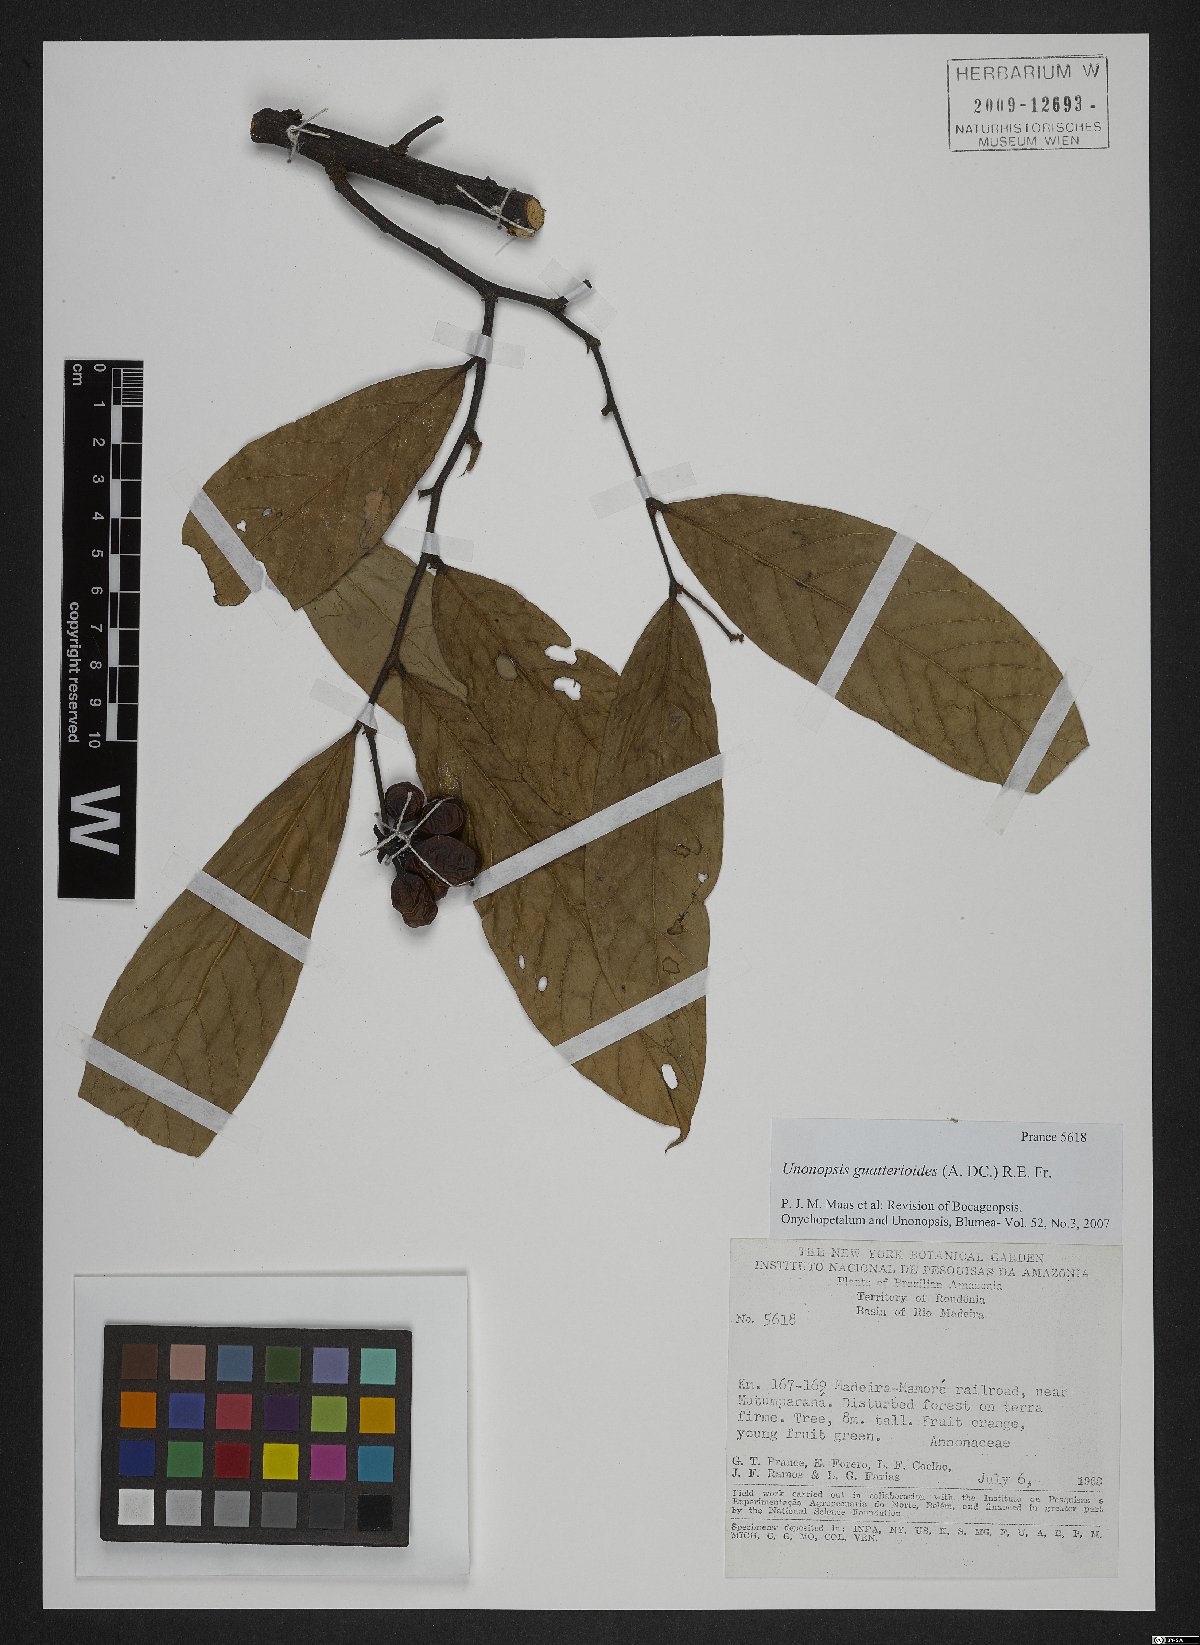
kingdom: Plantae
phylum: Tracheophyta
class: Magnoliopsida
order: Magnoliales
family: Annonaceae
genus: Unonopsis
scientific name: Unonopsis guatterioides
